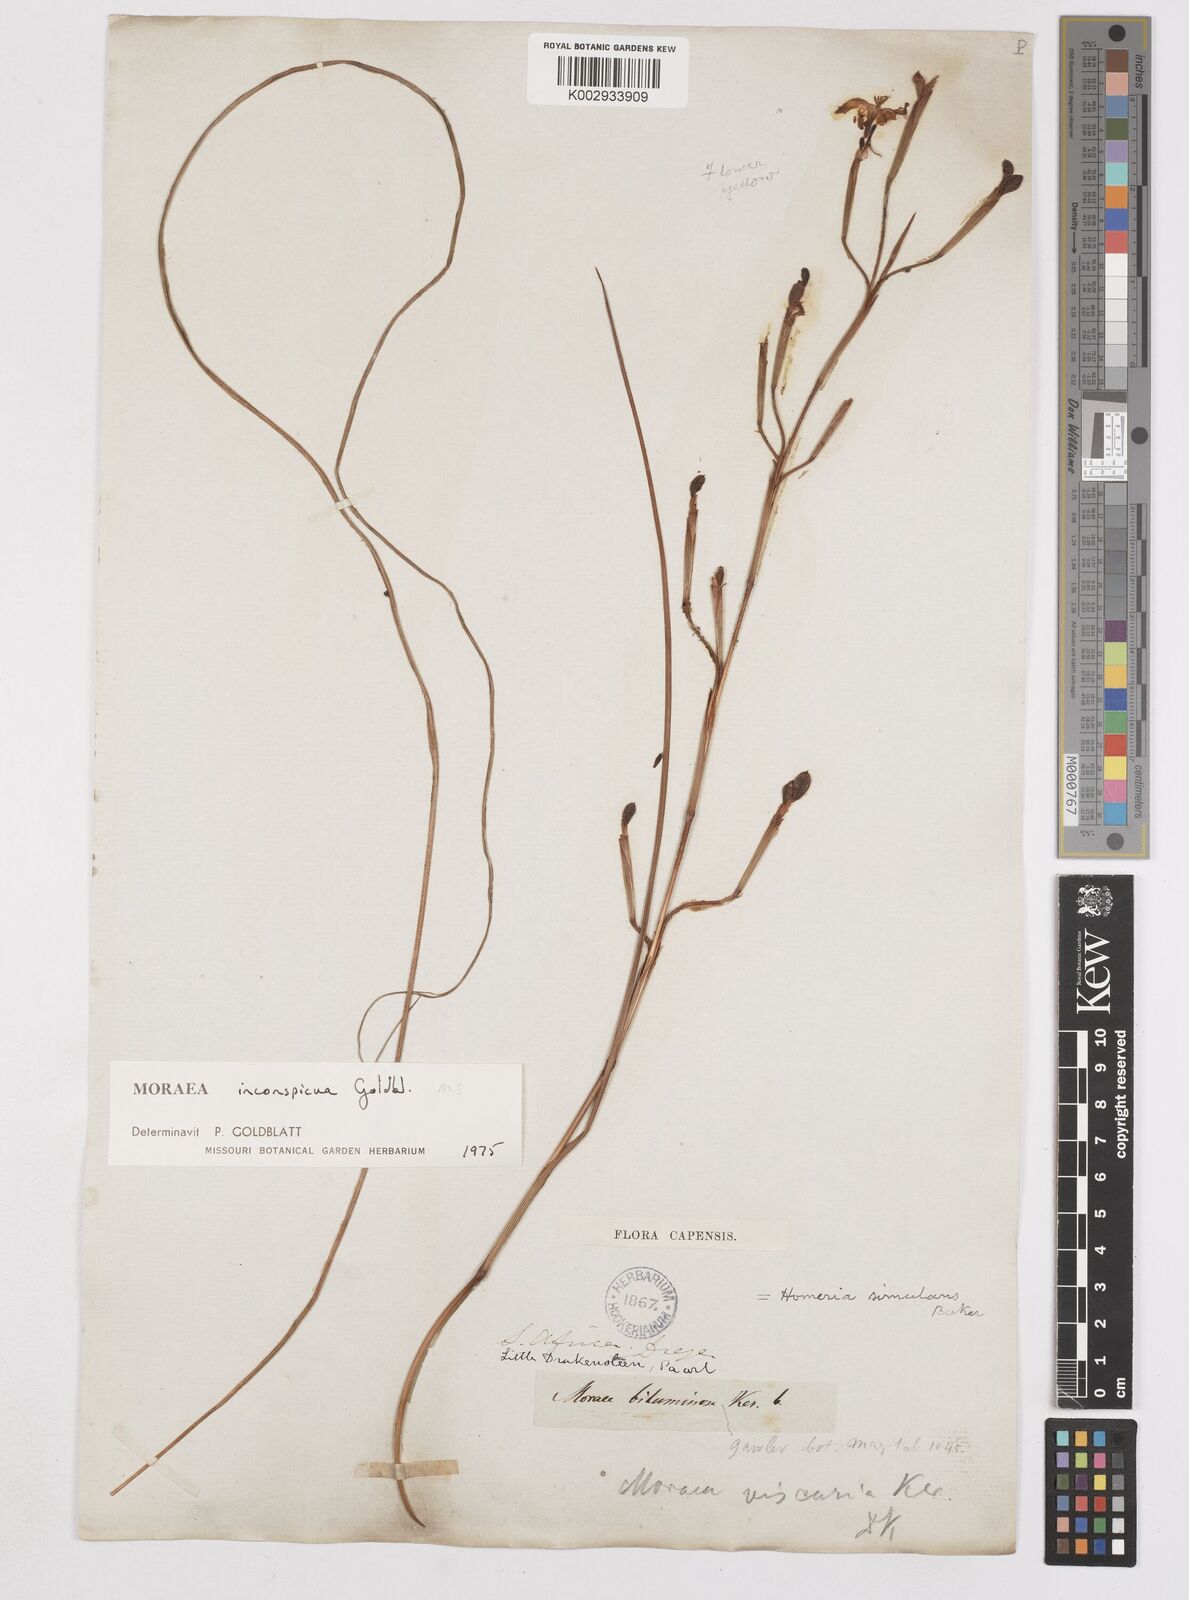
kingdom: Plantae
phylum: Tracheophyta
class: Liliopsida
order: Asparagales
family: Iridaceae
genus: Moraea
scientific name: Moraea inconspicua
